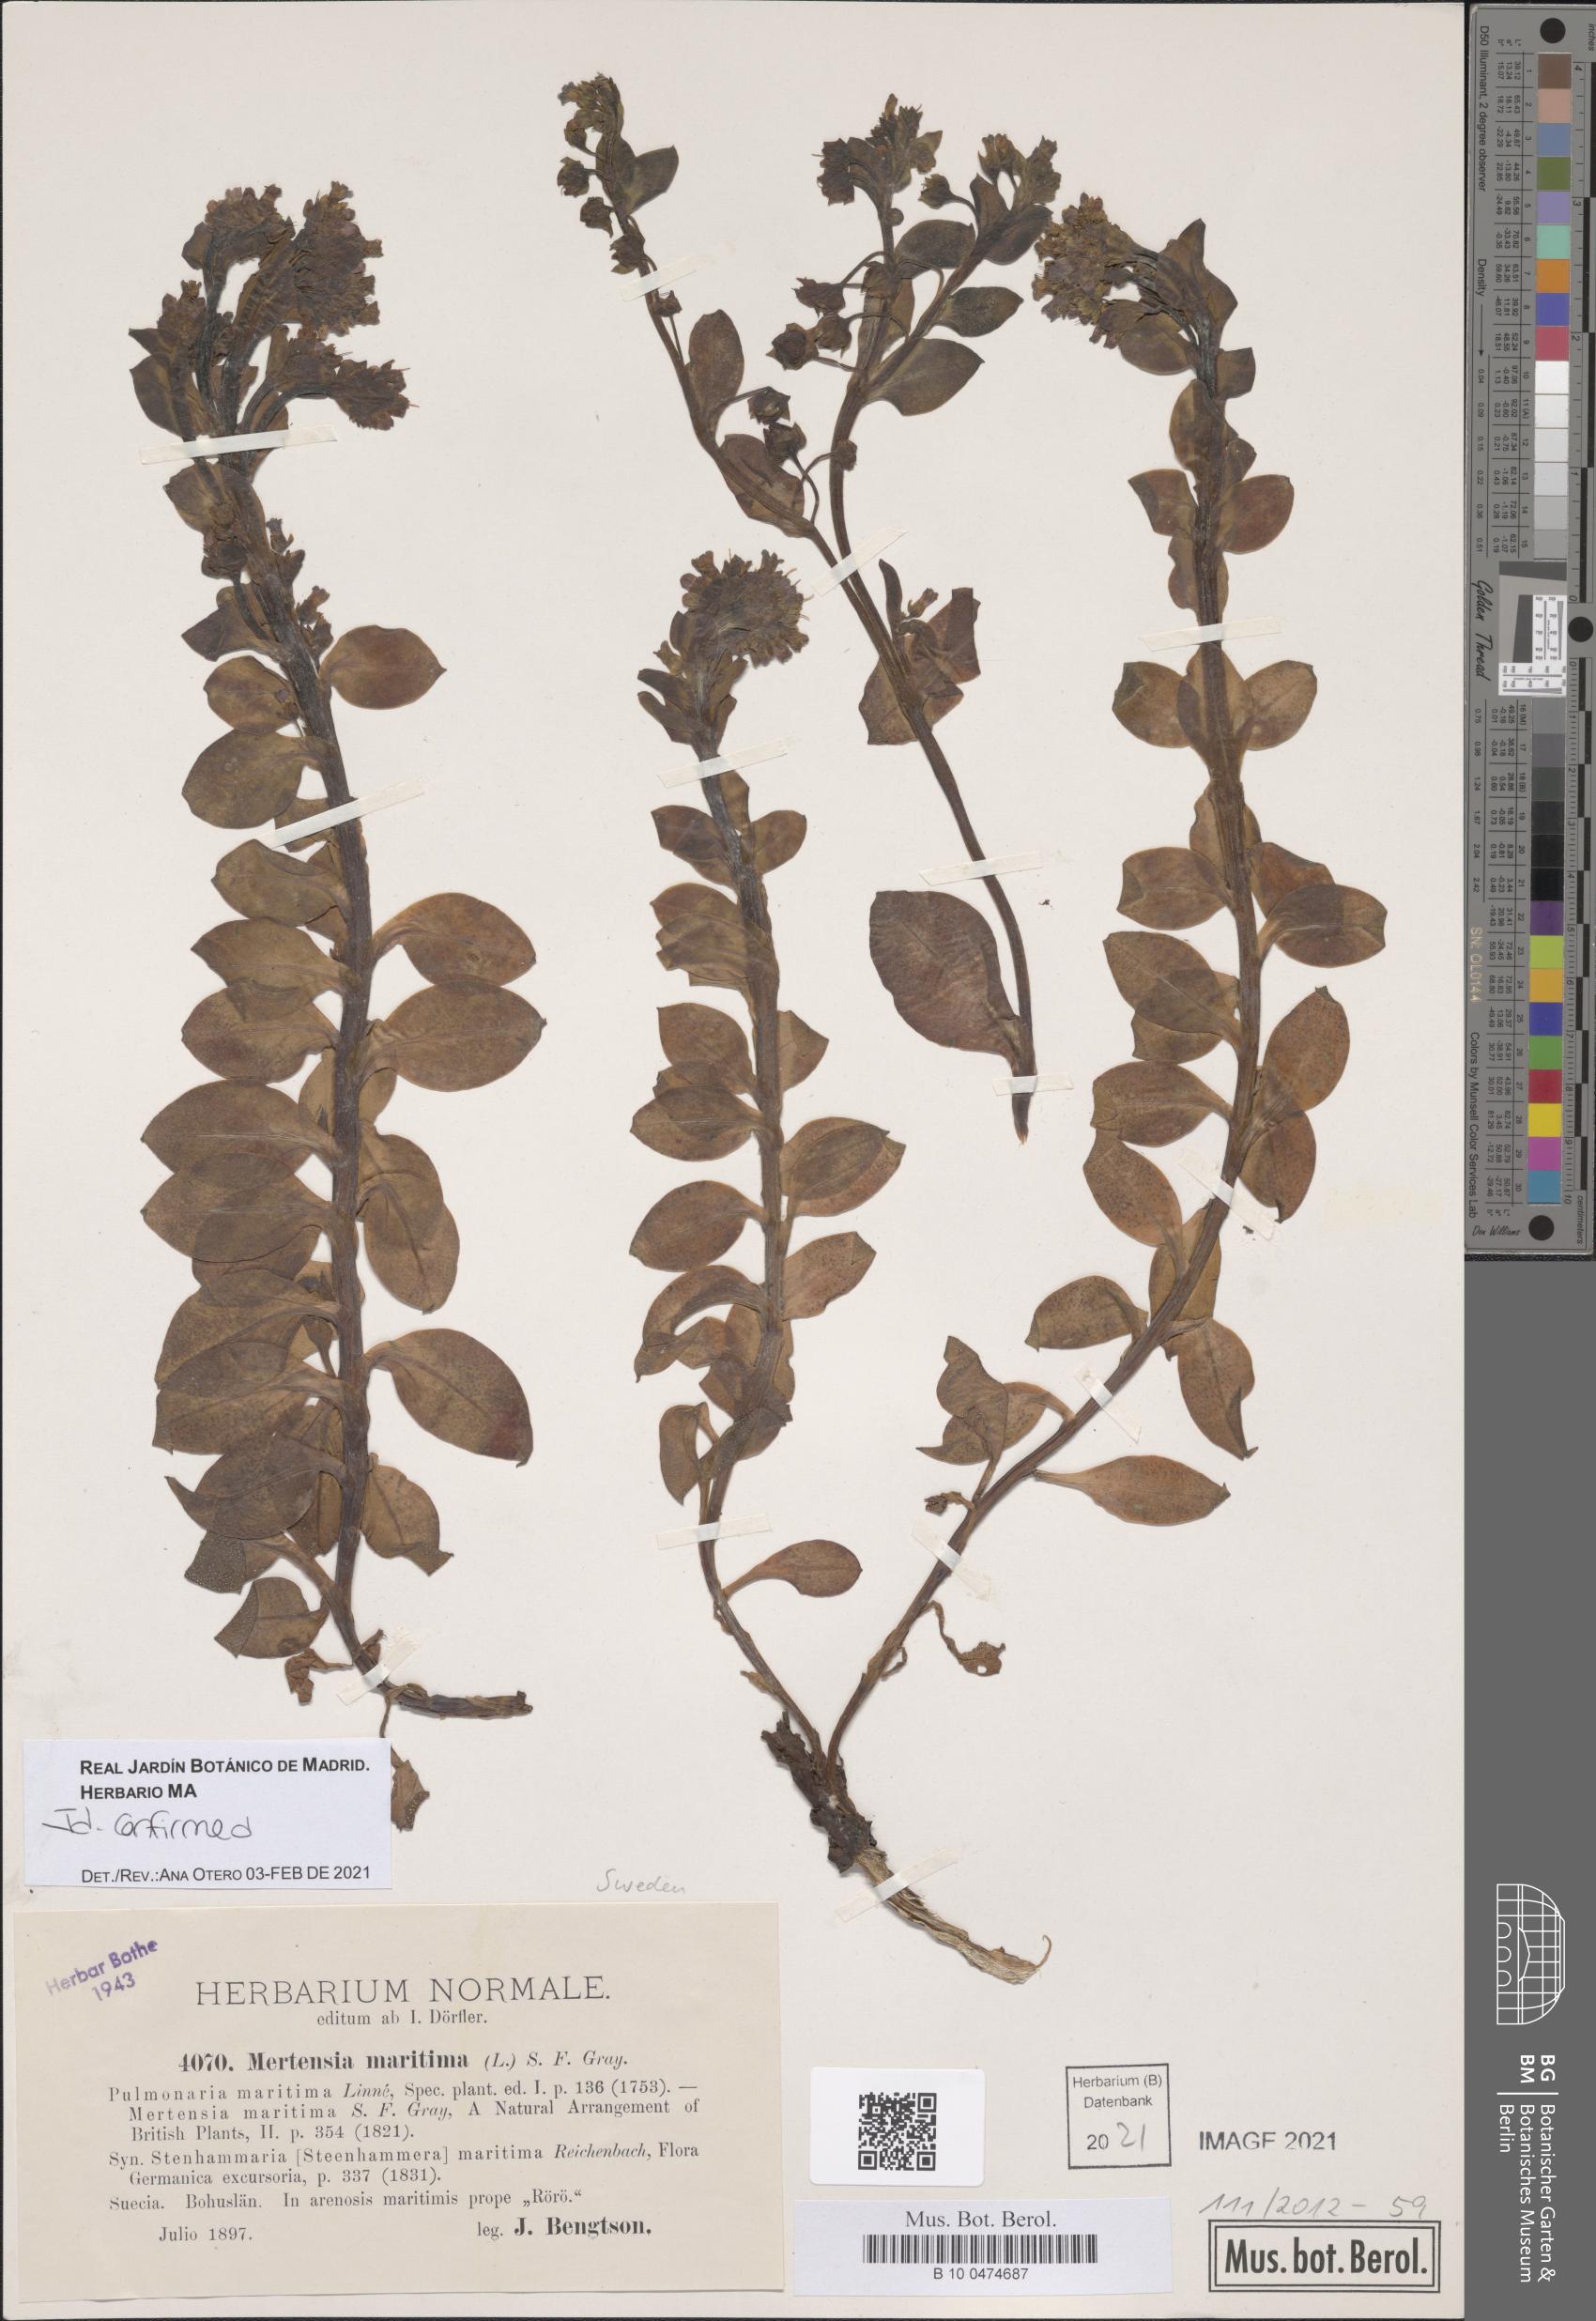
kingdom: Plantae
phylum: Tracheophyta
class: Magnoliopsida
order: Boraginales
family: Boraginaceae
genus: Mertensia
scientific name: Mertensia maritima
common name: Oysterplant
